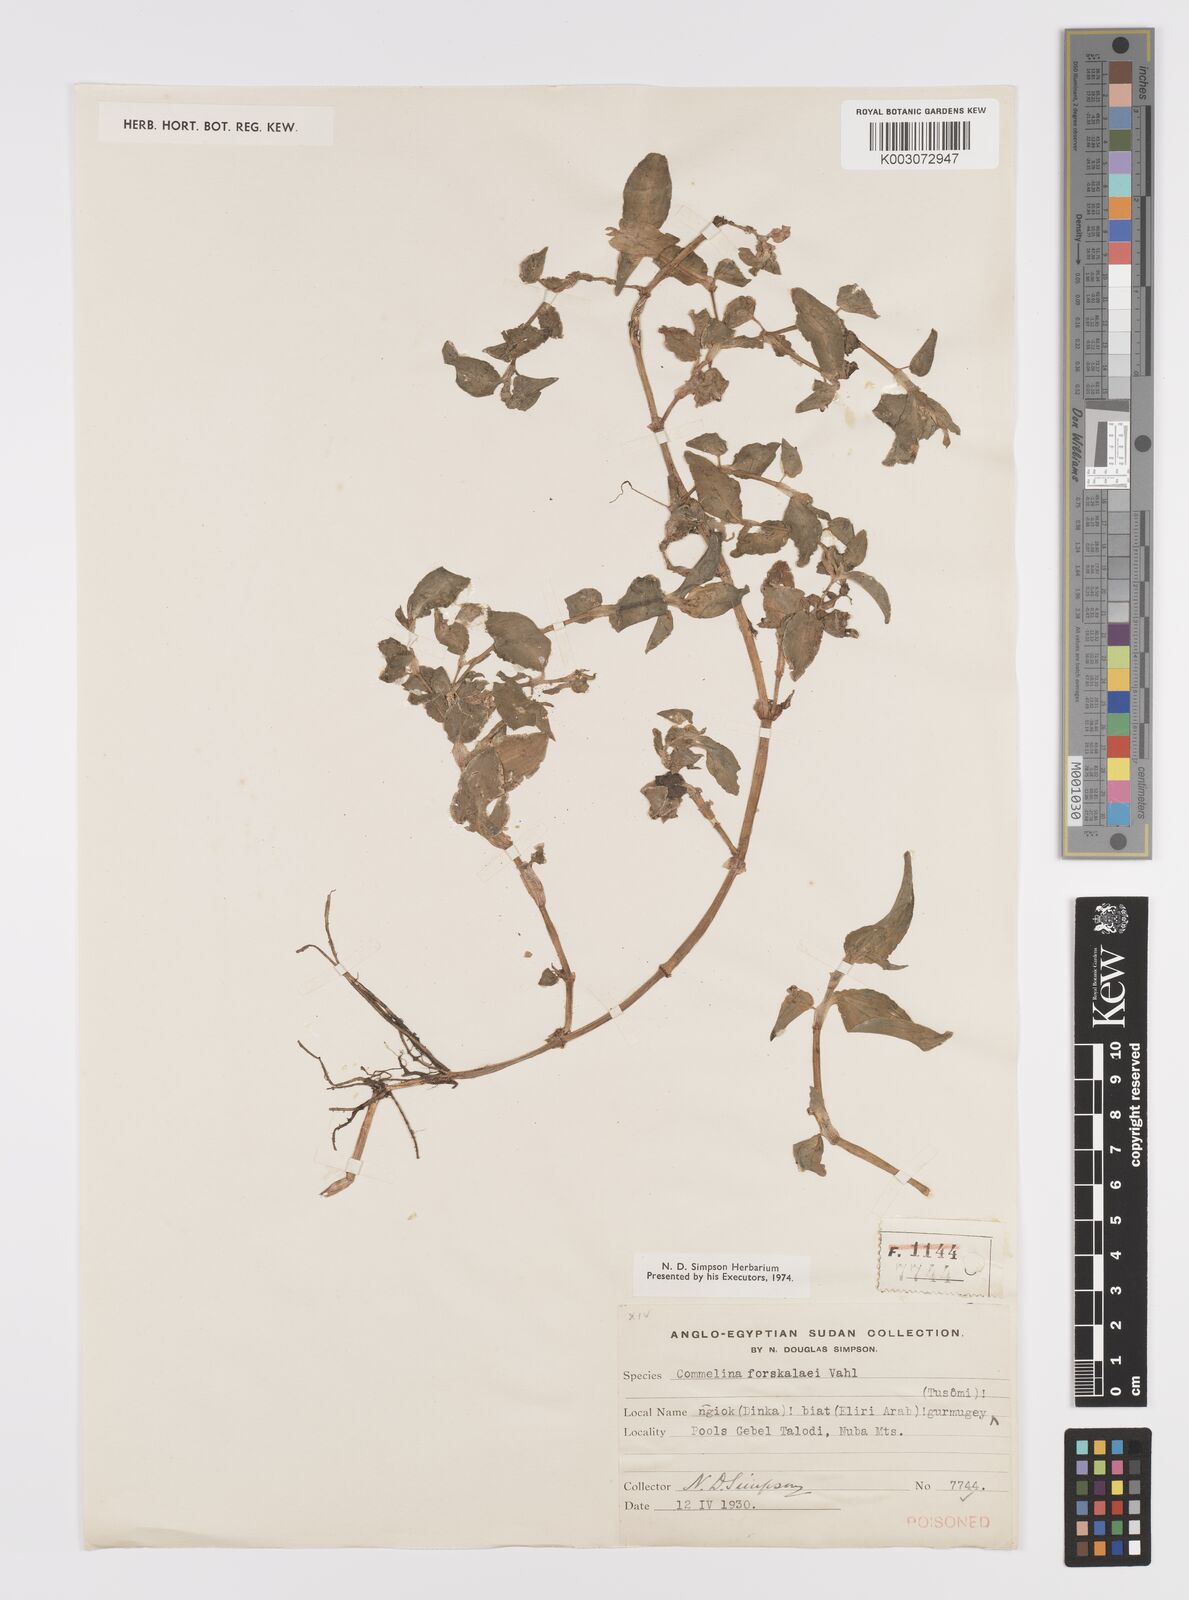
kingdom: Plantae
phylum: Tracheophyta
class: Liliopsida
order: Commelinales
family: Commelinaceae
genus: Commelina
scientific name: Commelina forskaolii
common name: Rat's ear
